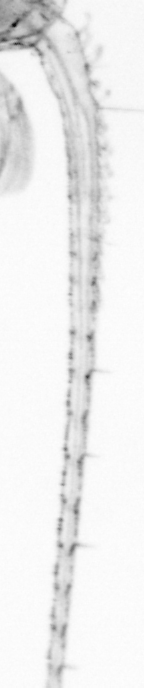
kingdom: Animalia
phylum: Arthropoda
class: Copepoda
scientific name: Copepoda
